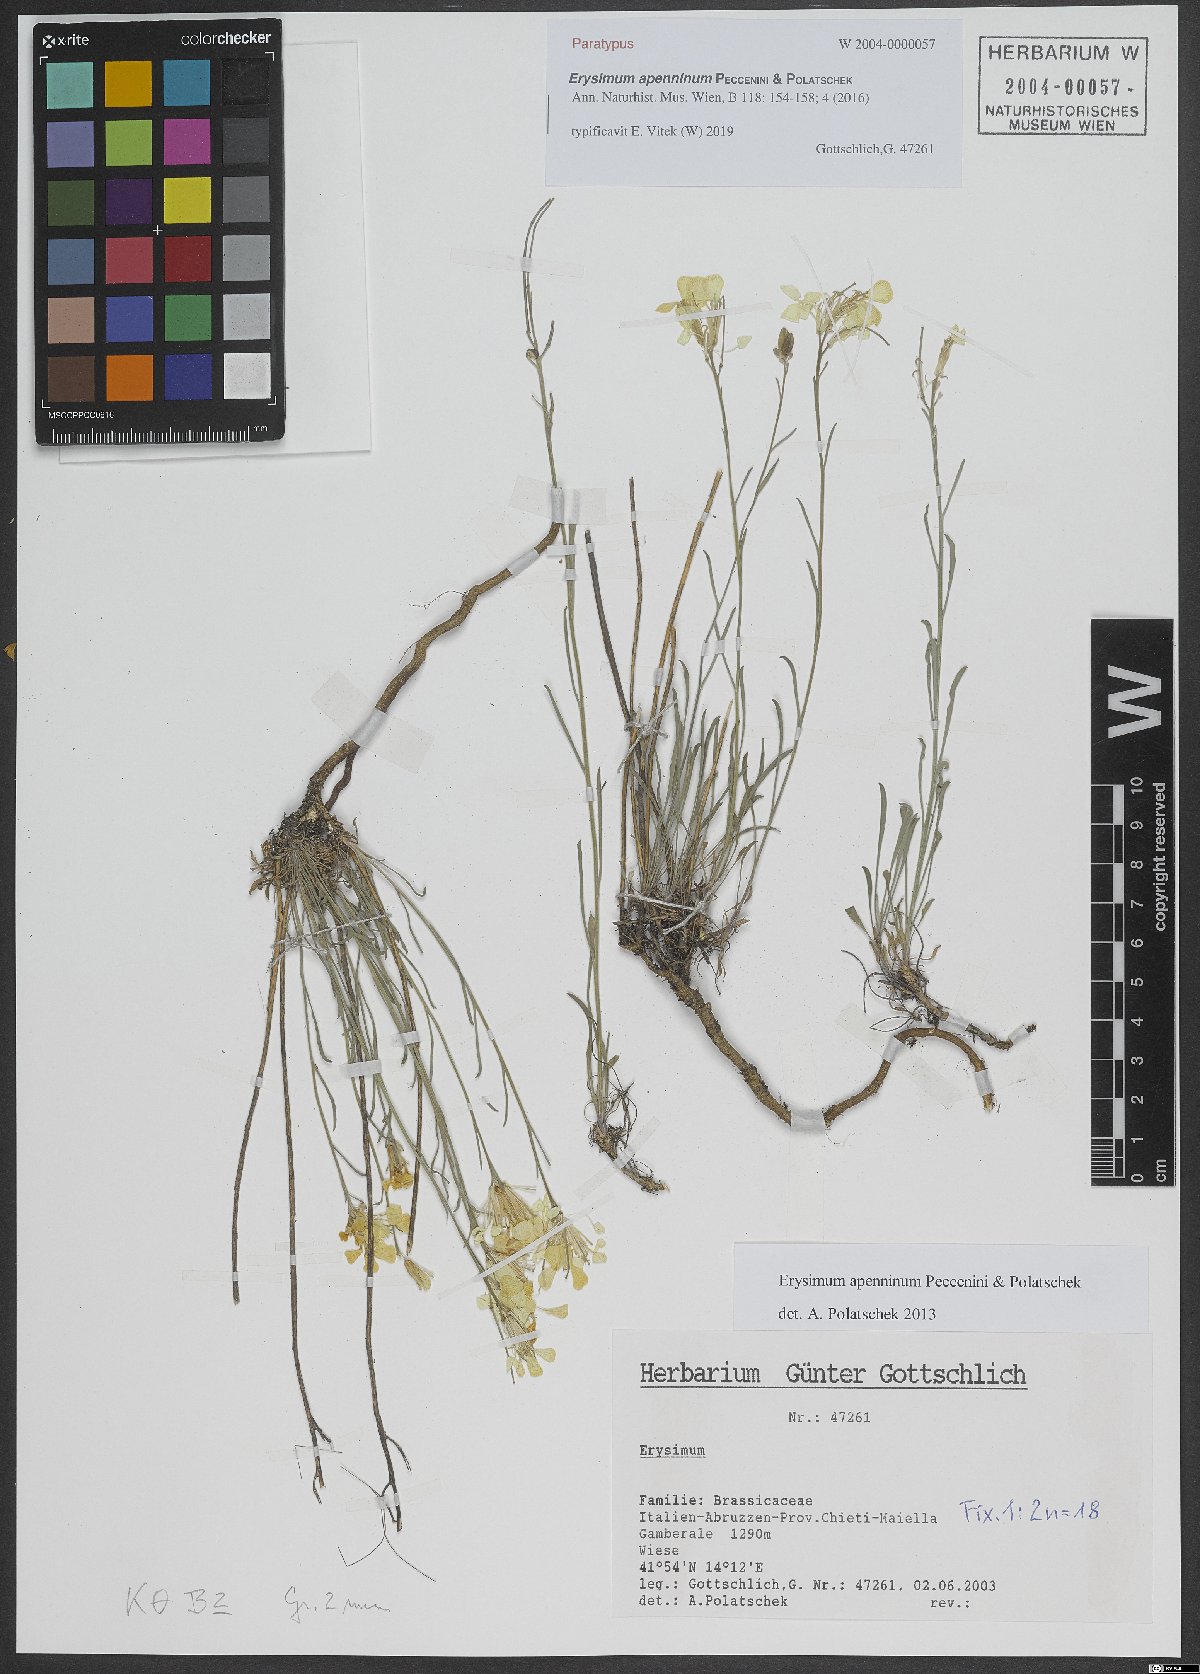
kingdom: Plantae
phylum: Tracheophyta
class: Magnoliopsida
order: Brassicales
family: Brassicaceae
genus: Erysimum
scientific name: Erysimum apenninum
